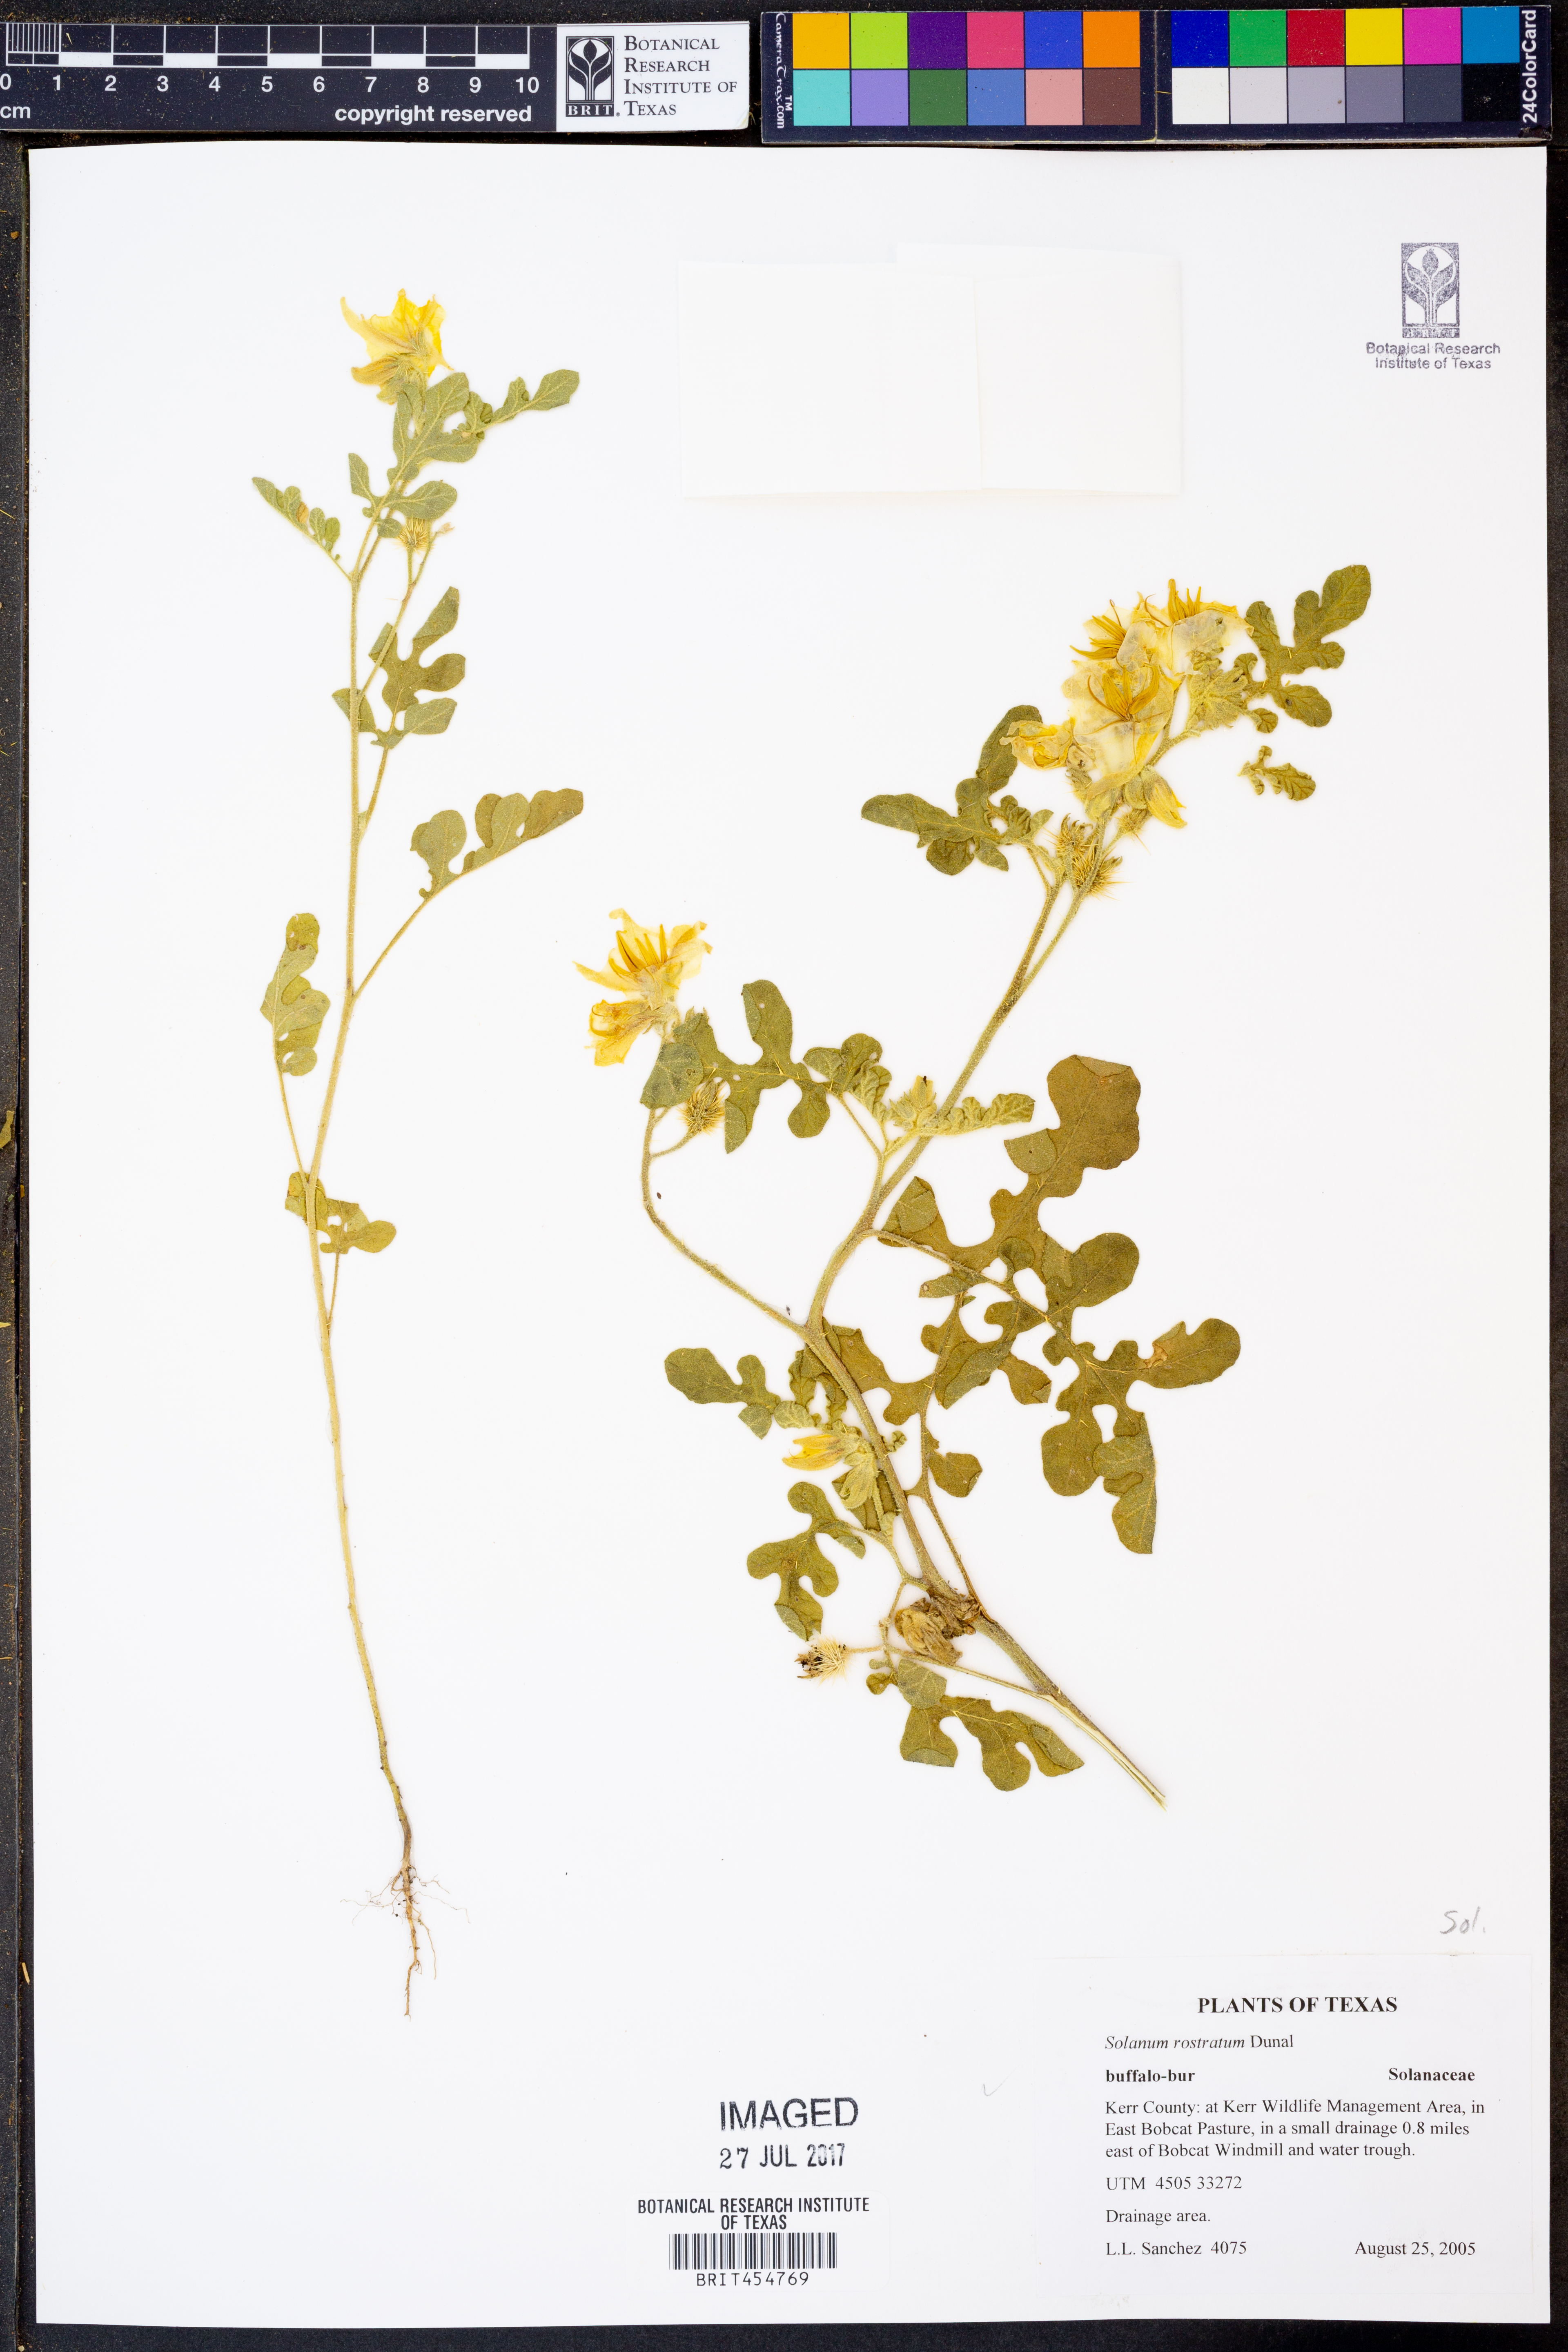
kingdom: Plantae
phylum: Tracheophyta
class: Magnoliopsida
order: Solanales
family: Solanaceae
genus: Solanum
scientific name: Solanum angustifolium
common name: Buffalobur nightshade
